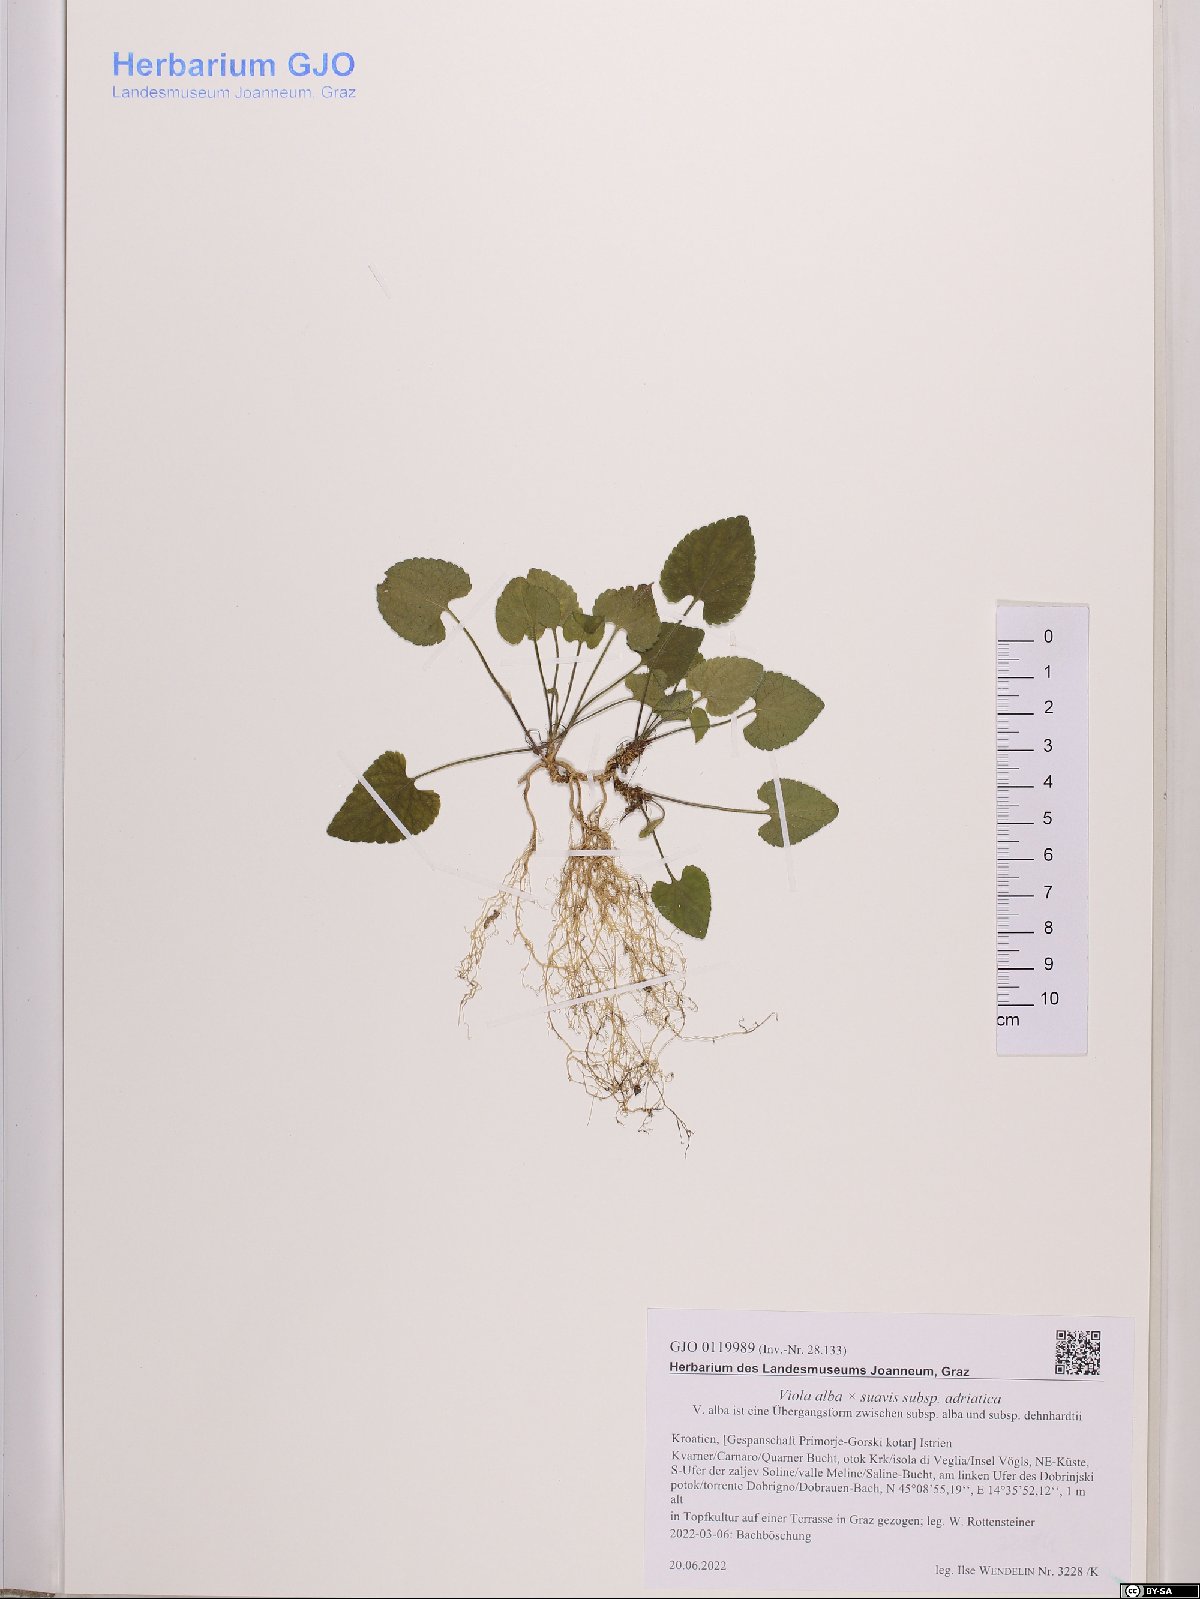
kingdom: Plantae
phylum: Tracheophyta
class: Magnoliopsida
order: Malpighiales
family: Violaceae
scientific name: Violaceae
